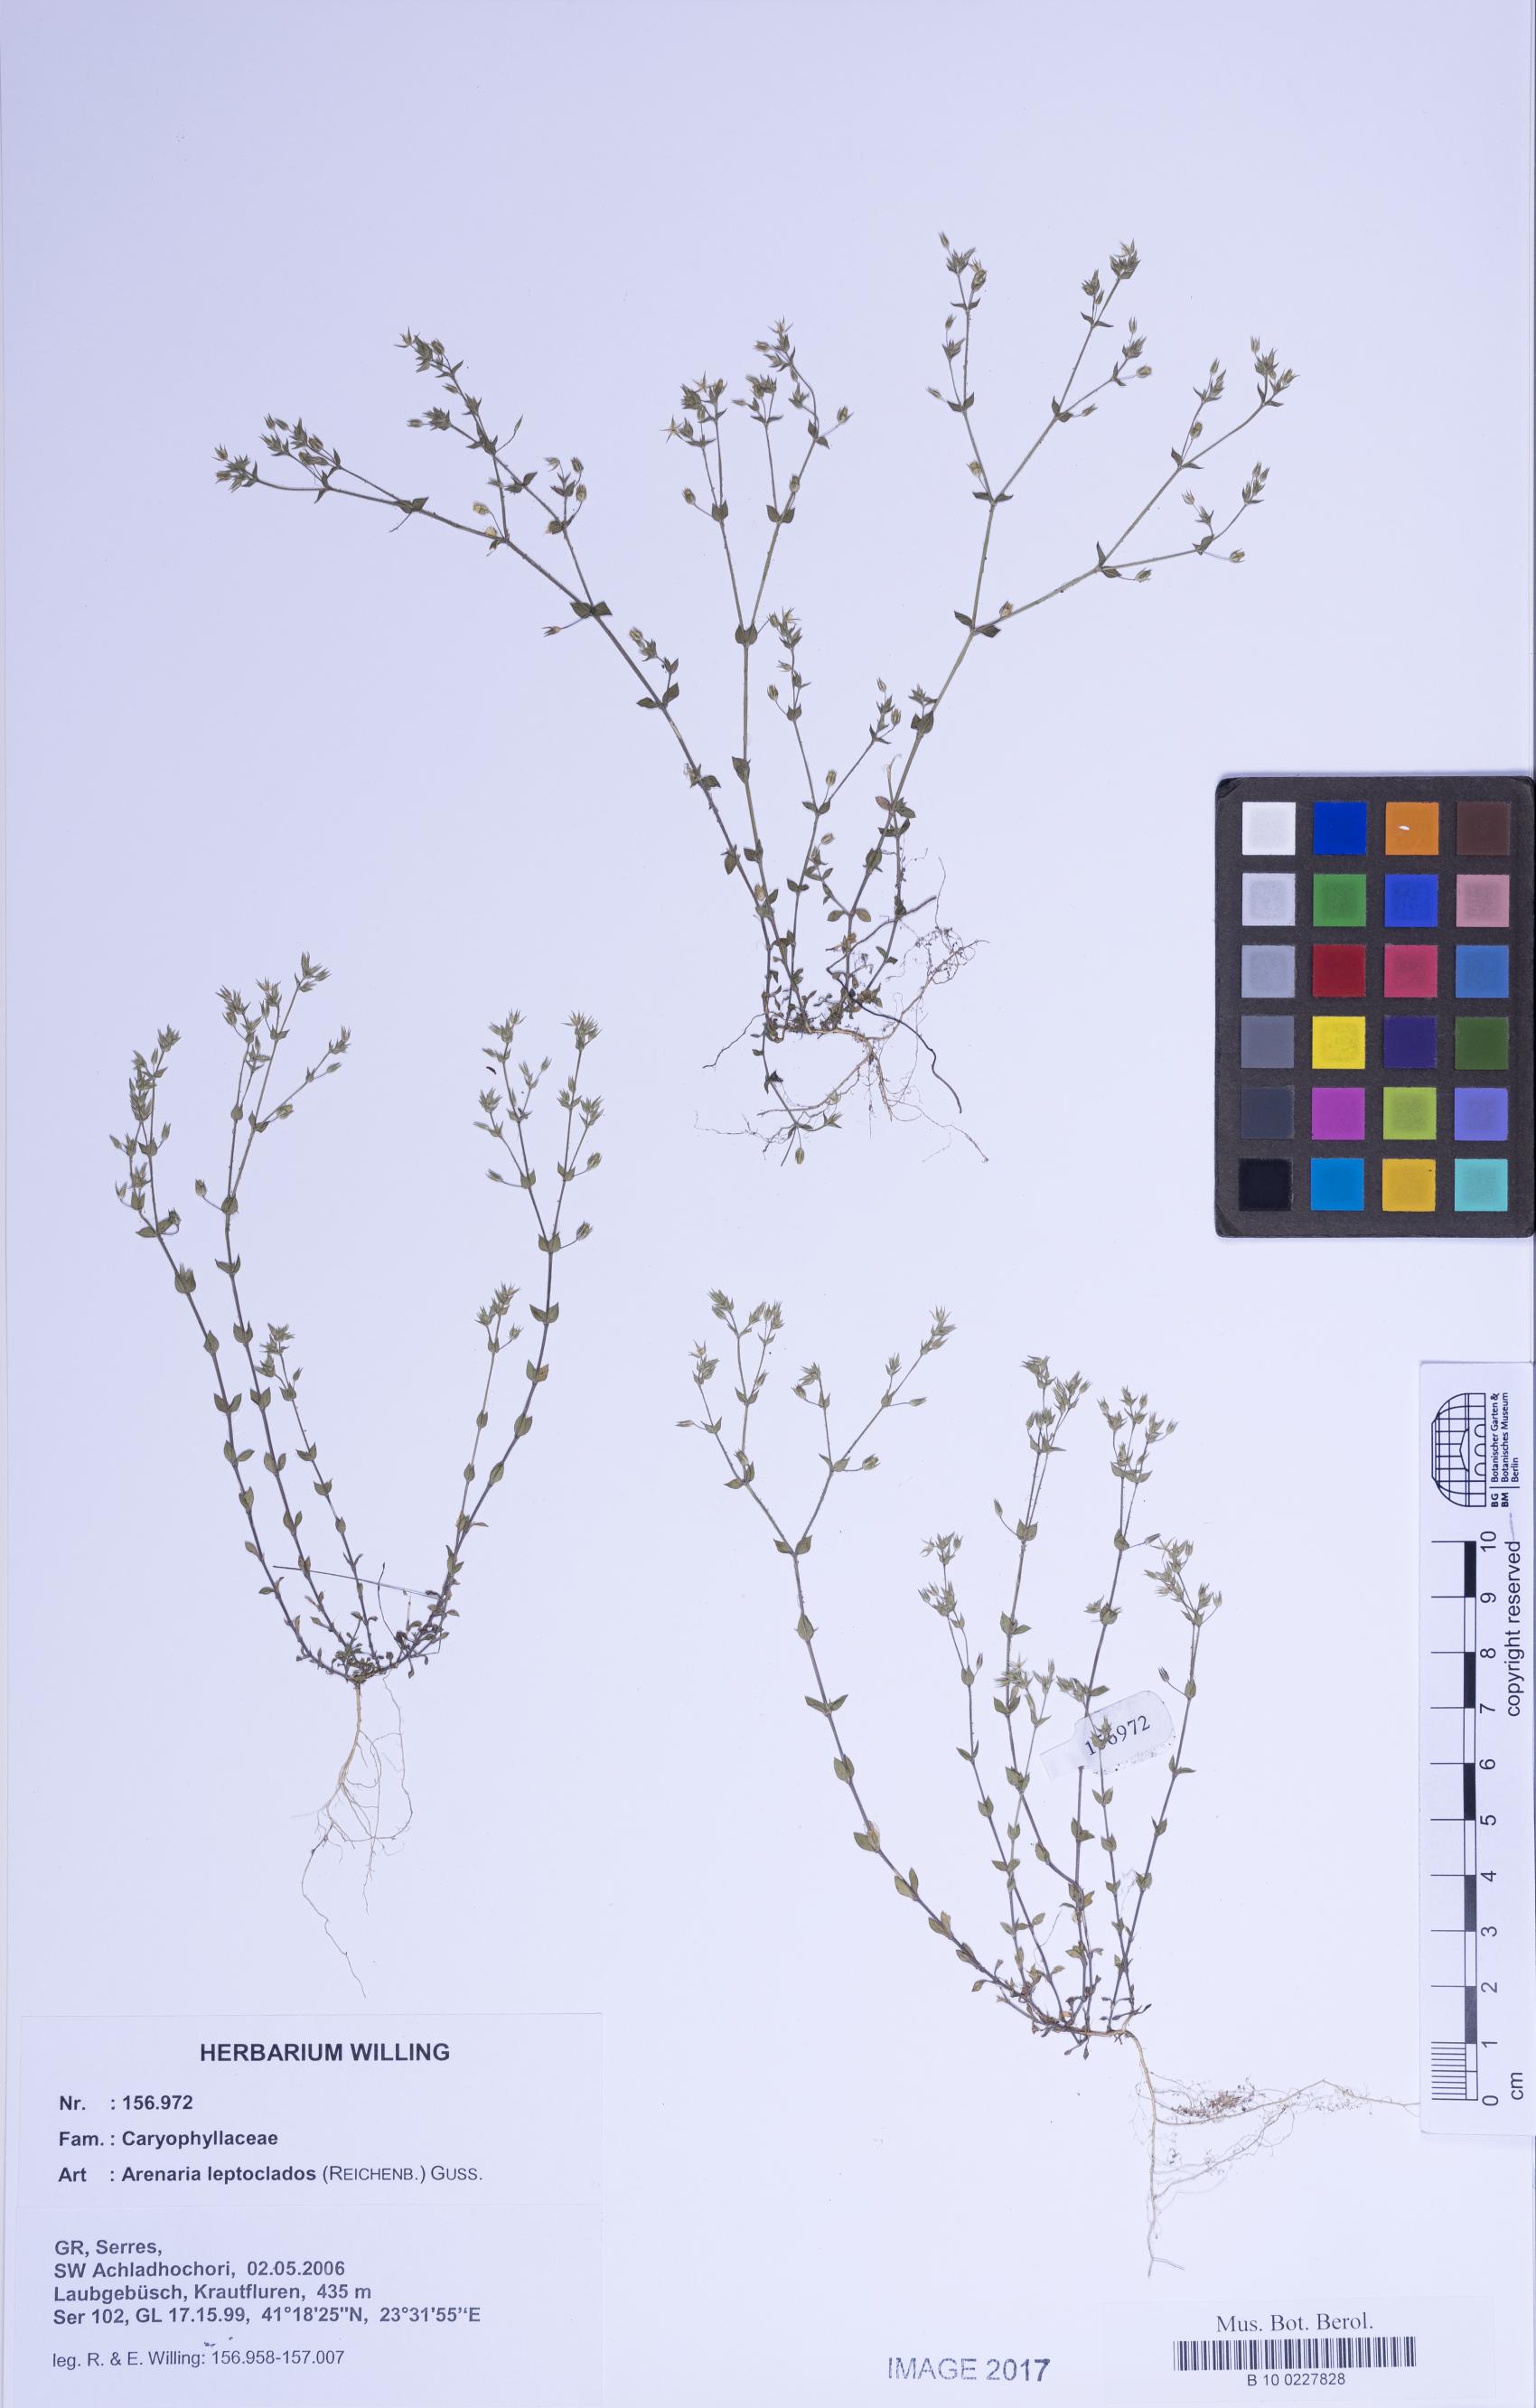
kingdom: Plantae
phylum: Tracheophyta
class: Magnoliopsida
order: Caryophyllales
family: Caryophyllaceae
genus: Arenaria
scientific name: Arenaria leptoclados
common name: Thyme-leaved sandwort
